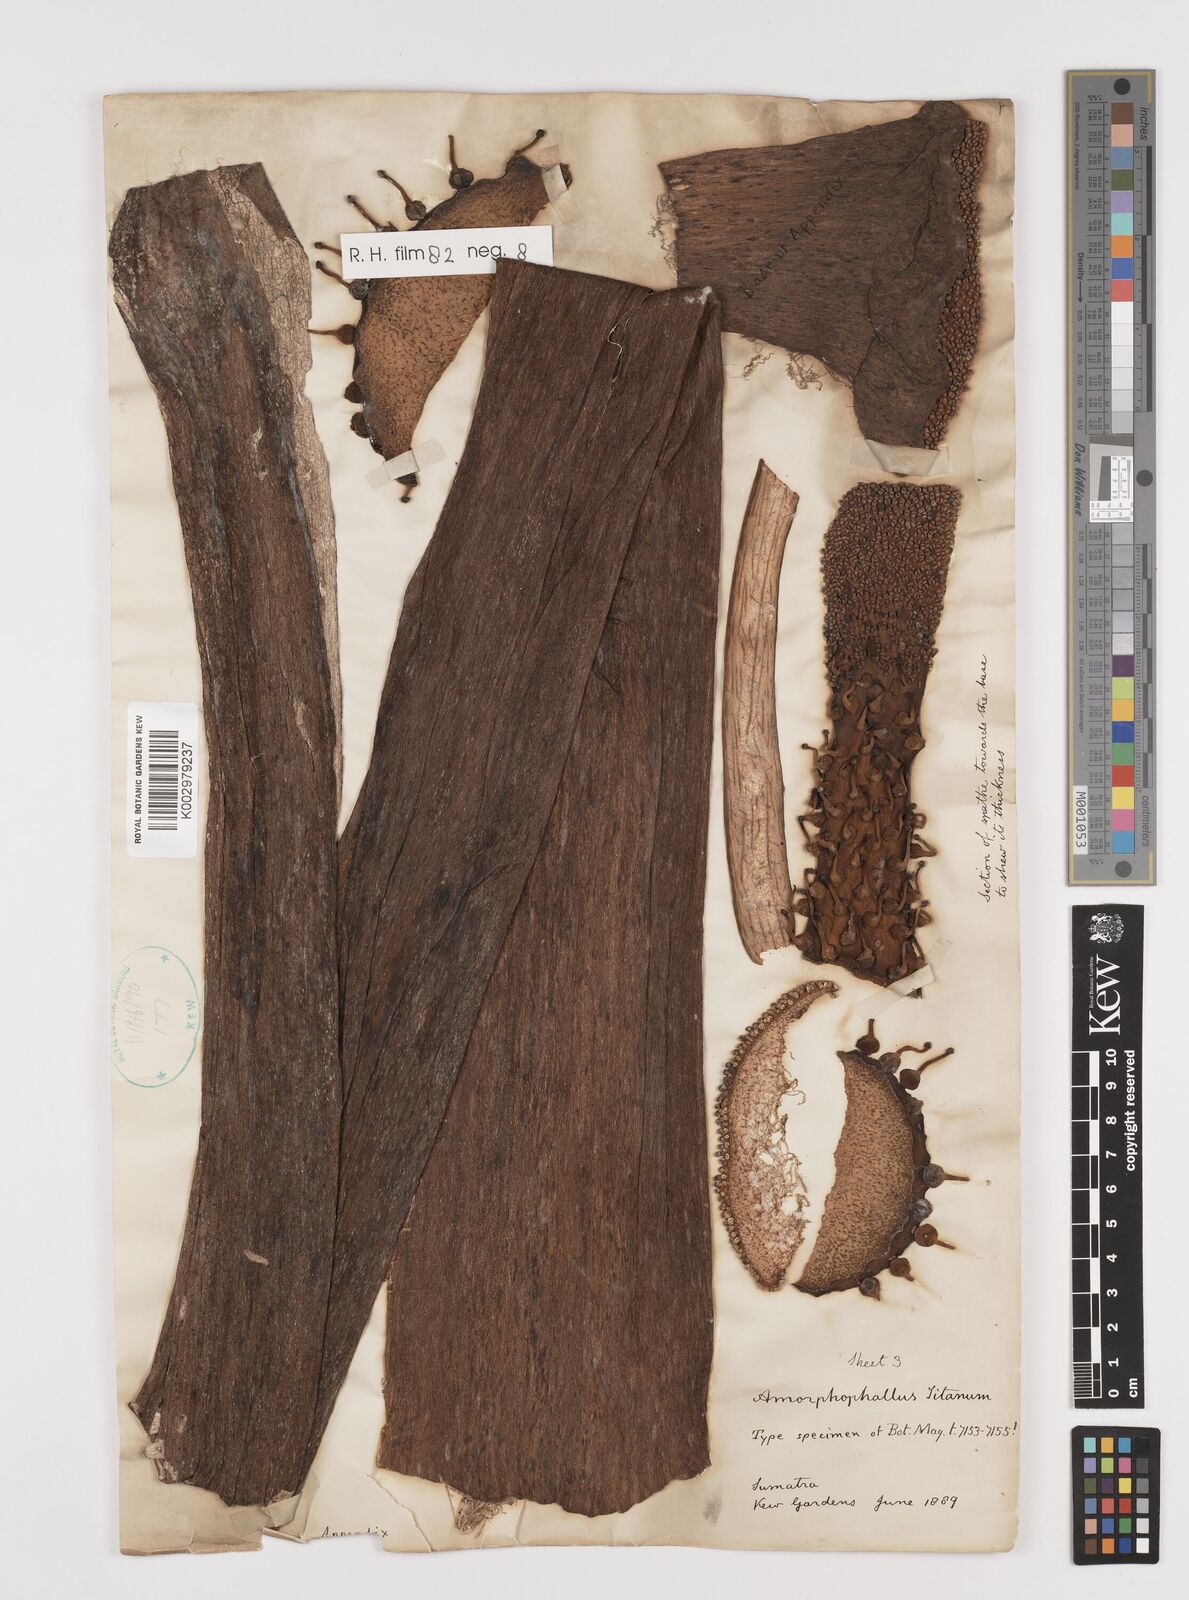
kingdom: Plantae
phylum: Tracheophyta
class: Liliopsida
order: Alismatales
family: Araceae
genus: Amorphophallus
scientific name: Amorphophallus titanum
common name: Titan arum
